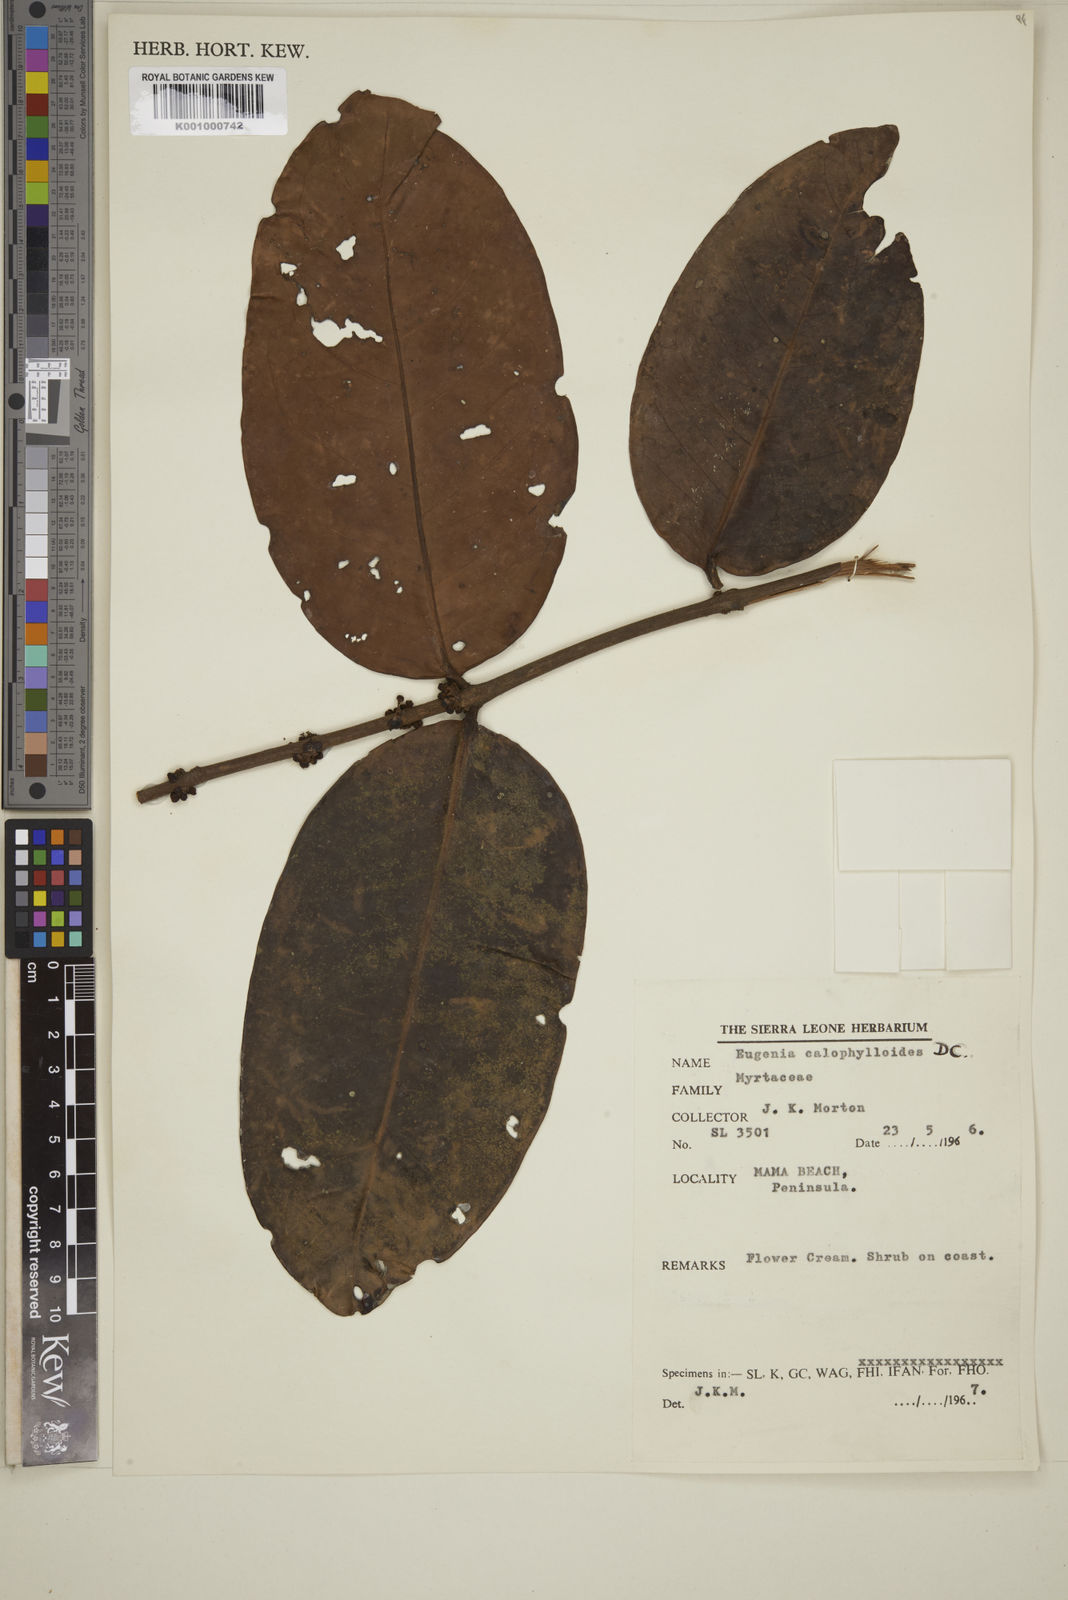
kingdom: Plantae
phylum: Tracheophyta
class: Magnoliopsida
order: Myrtales
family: Myrtaceae
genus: Eugenia
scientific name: Eugenia calophylloides
